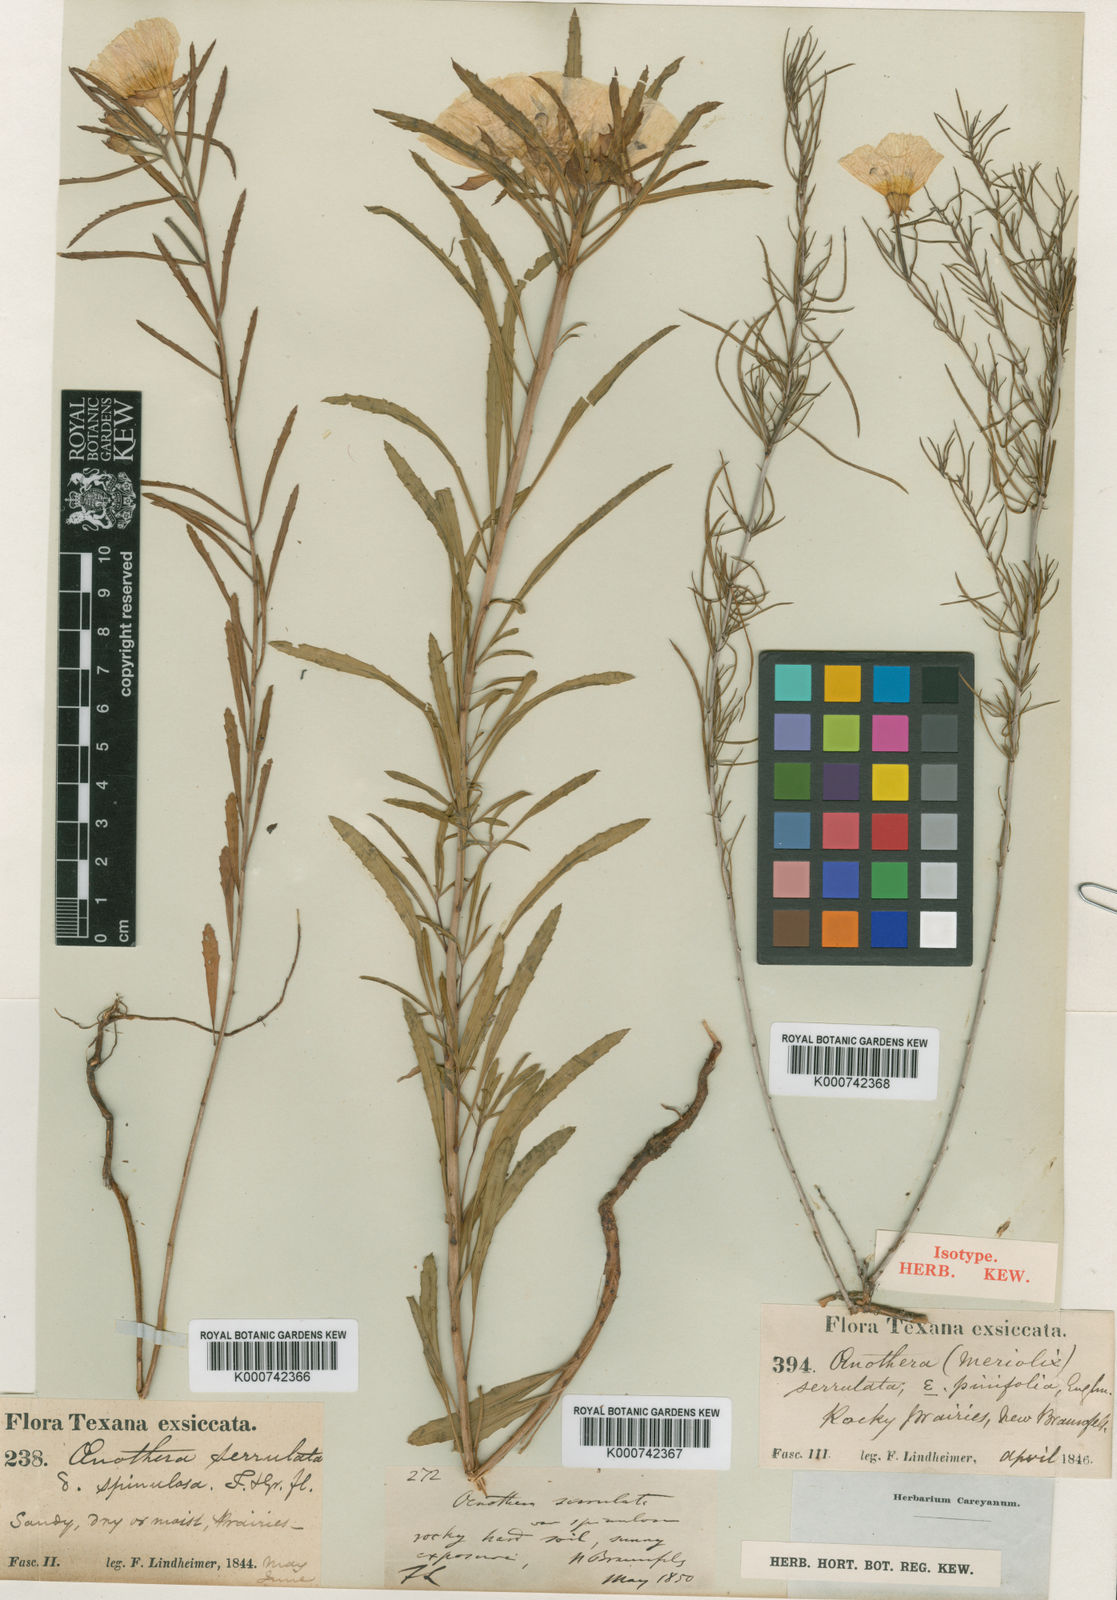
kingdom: Plantae
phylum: Tracheophyta
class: Magnoliopsida
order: Myrtales
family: Onagraceae
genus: Oenothera
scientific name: Oenothera capillifolia
